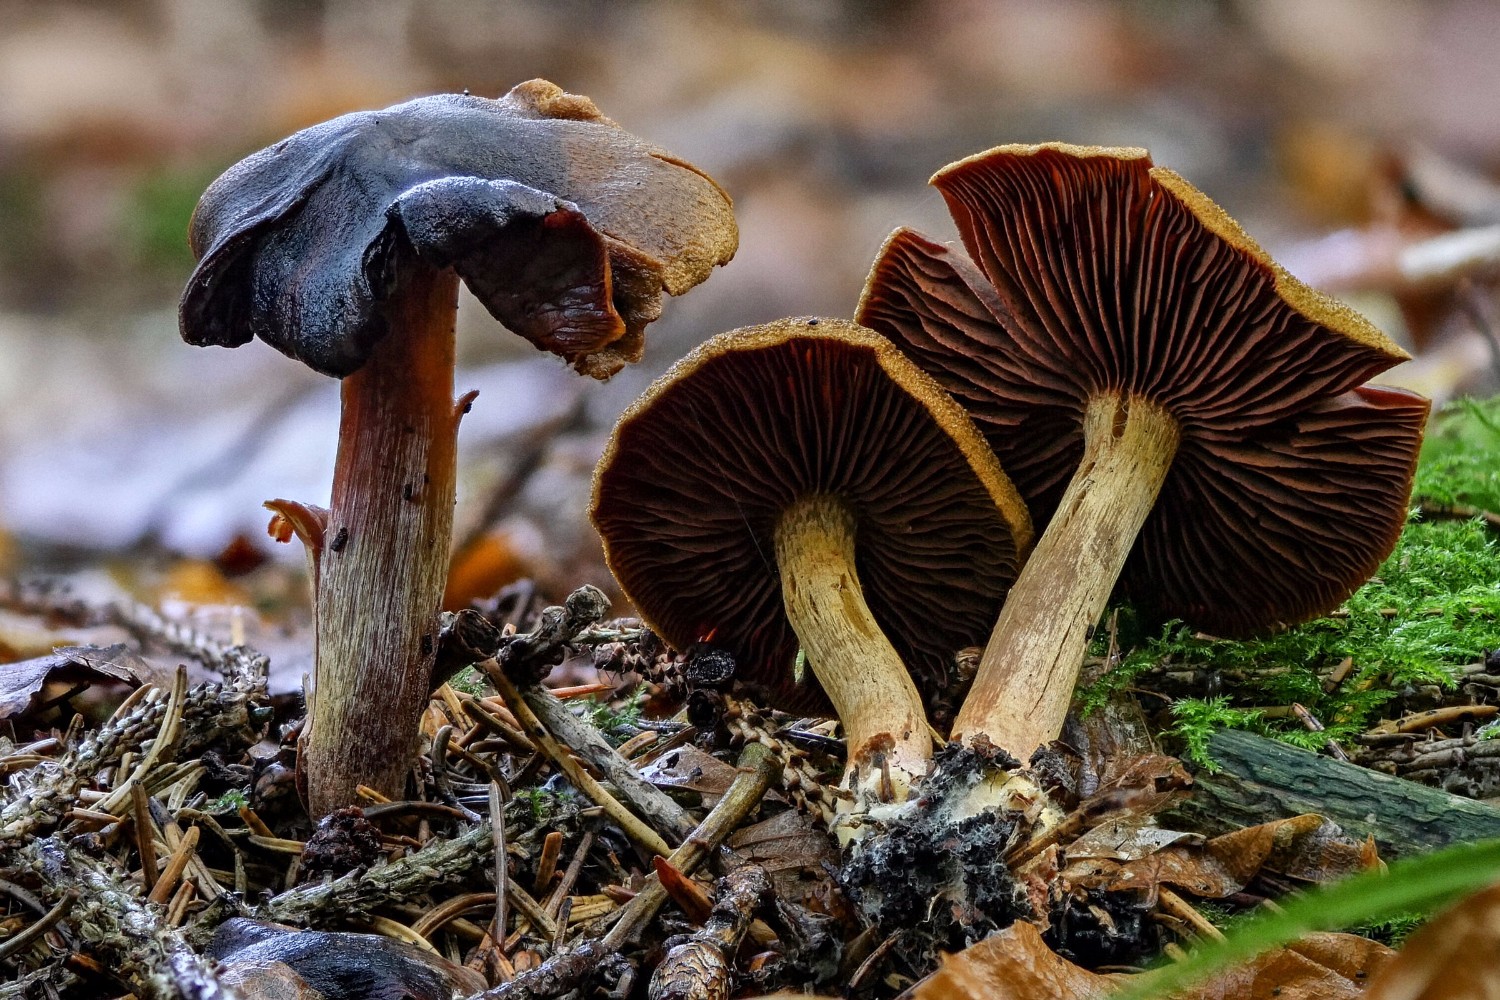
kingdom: Fungi
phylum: Basidiomycota
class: Agaricomycetes
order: Agaricales
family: Cortinariaceae
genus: Cortinarius
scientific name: Cortinarius
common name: cinnoberbladet slørhat
